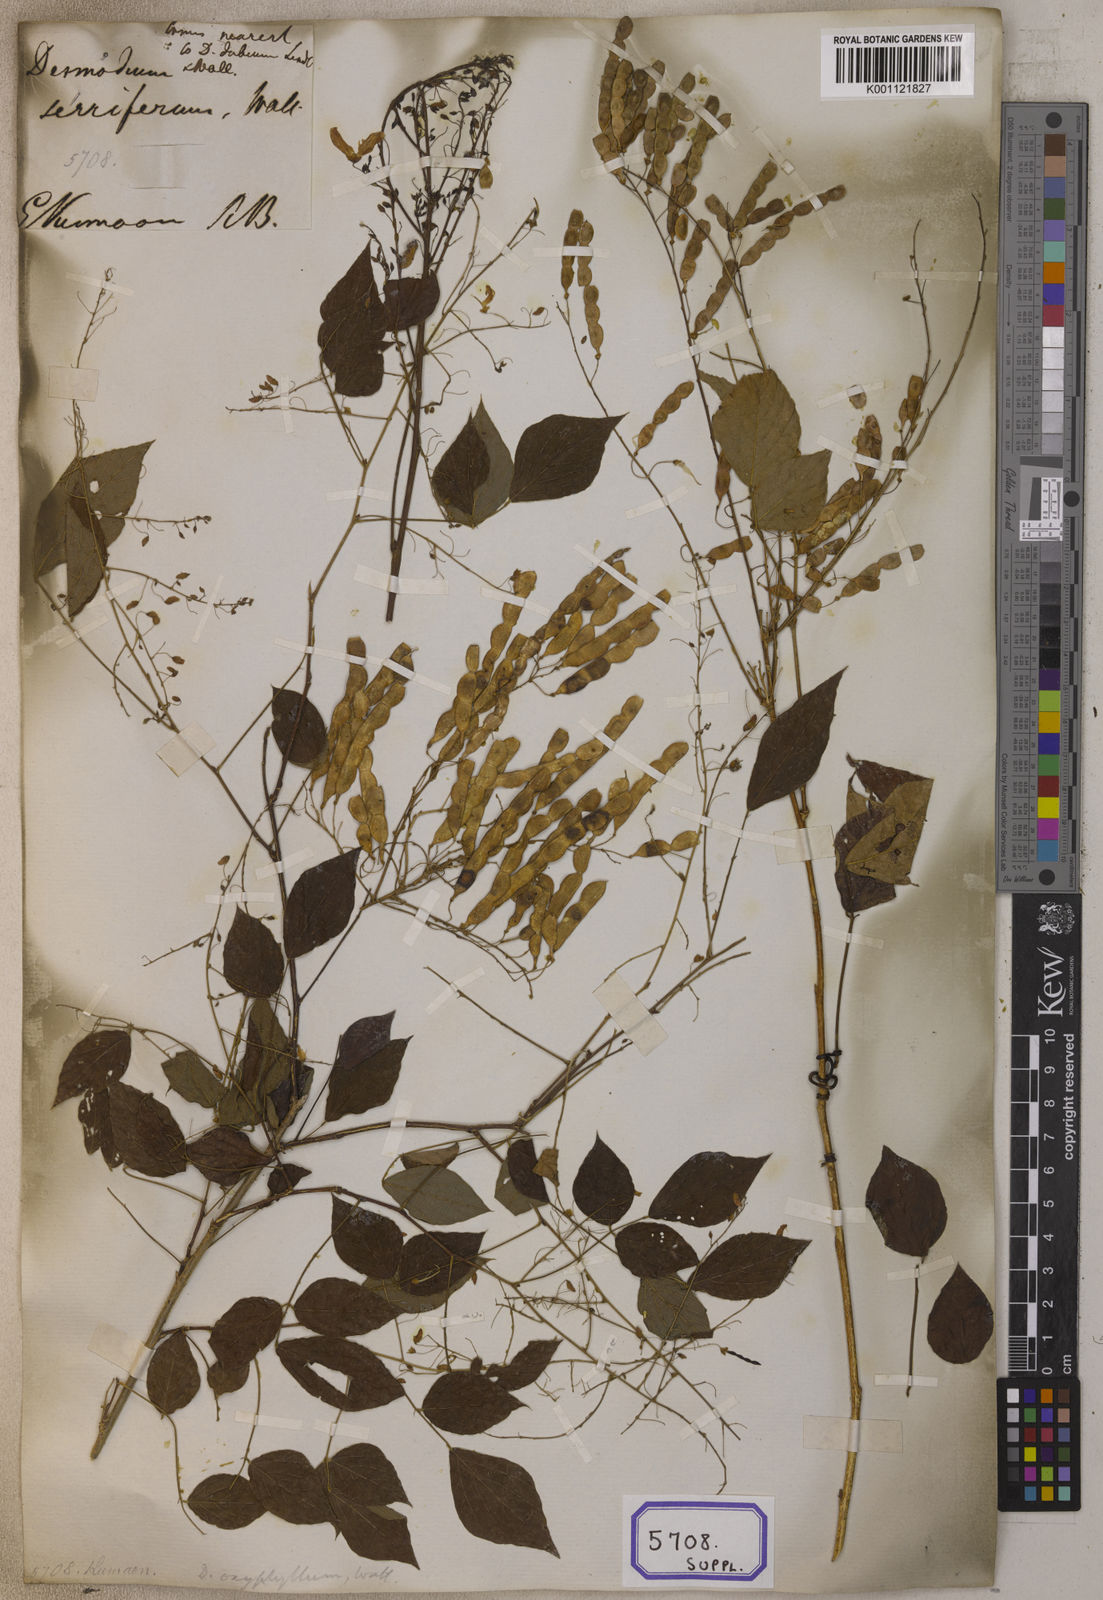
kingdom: Plantae
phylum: Tracheophyta
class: Magnoliopsida
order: Fabales
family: Fabaceae
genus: Desmodium
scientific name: Desmodium
